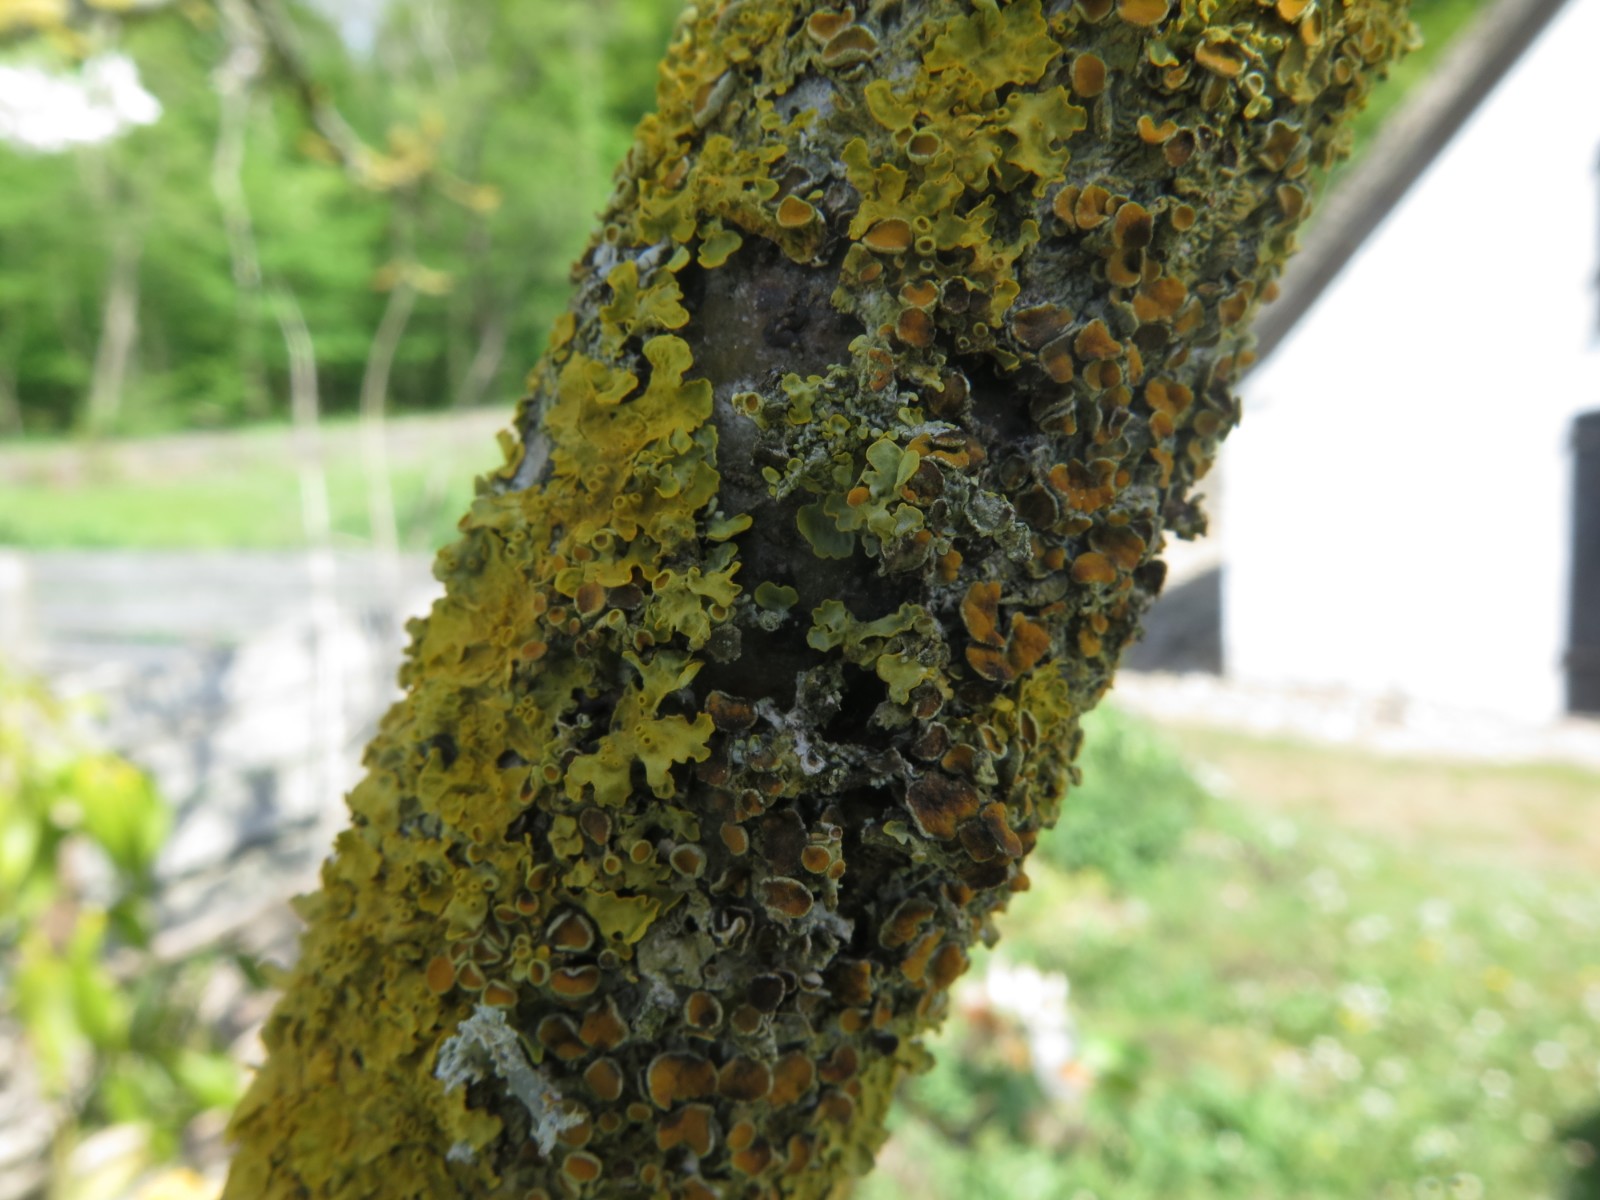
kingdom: Fungi
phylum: Ascomycota
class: Dothideomycetes
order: Mycosphaerellales
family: Teratosphaeriaceae
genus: Xanthoriicola
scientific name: Xanthoriicola physciae
